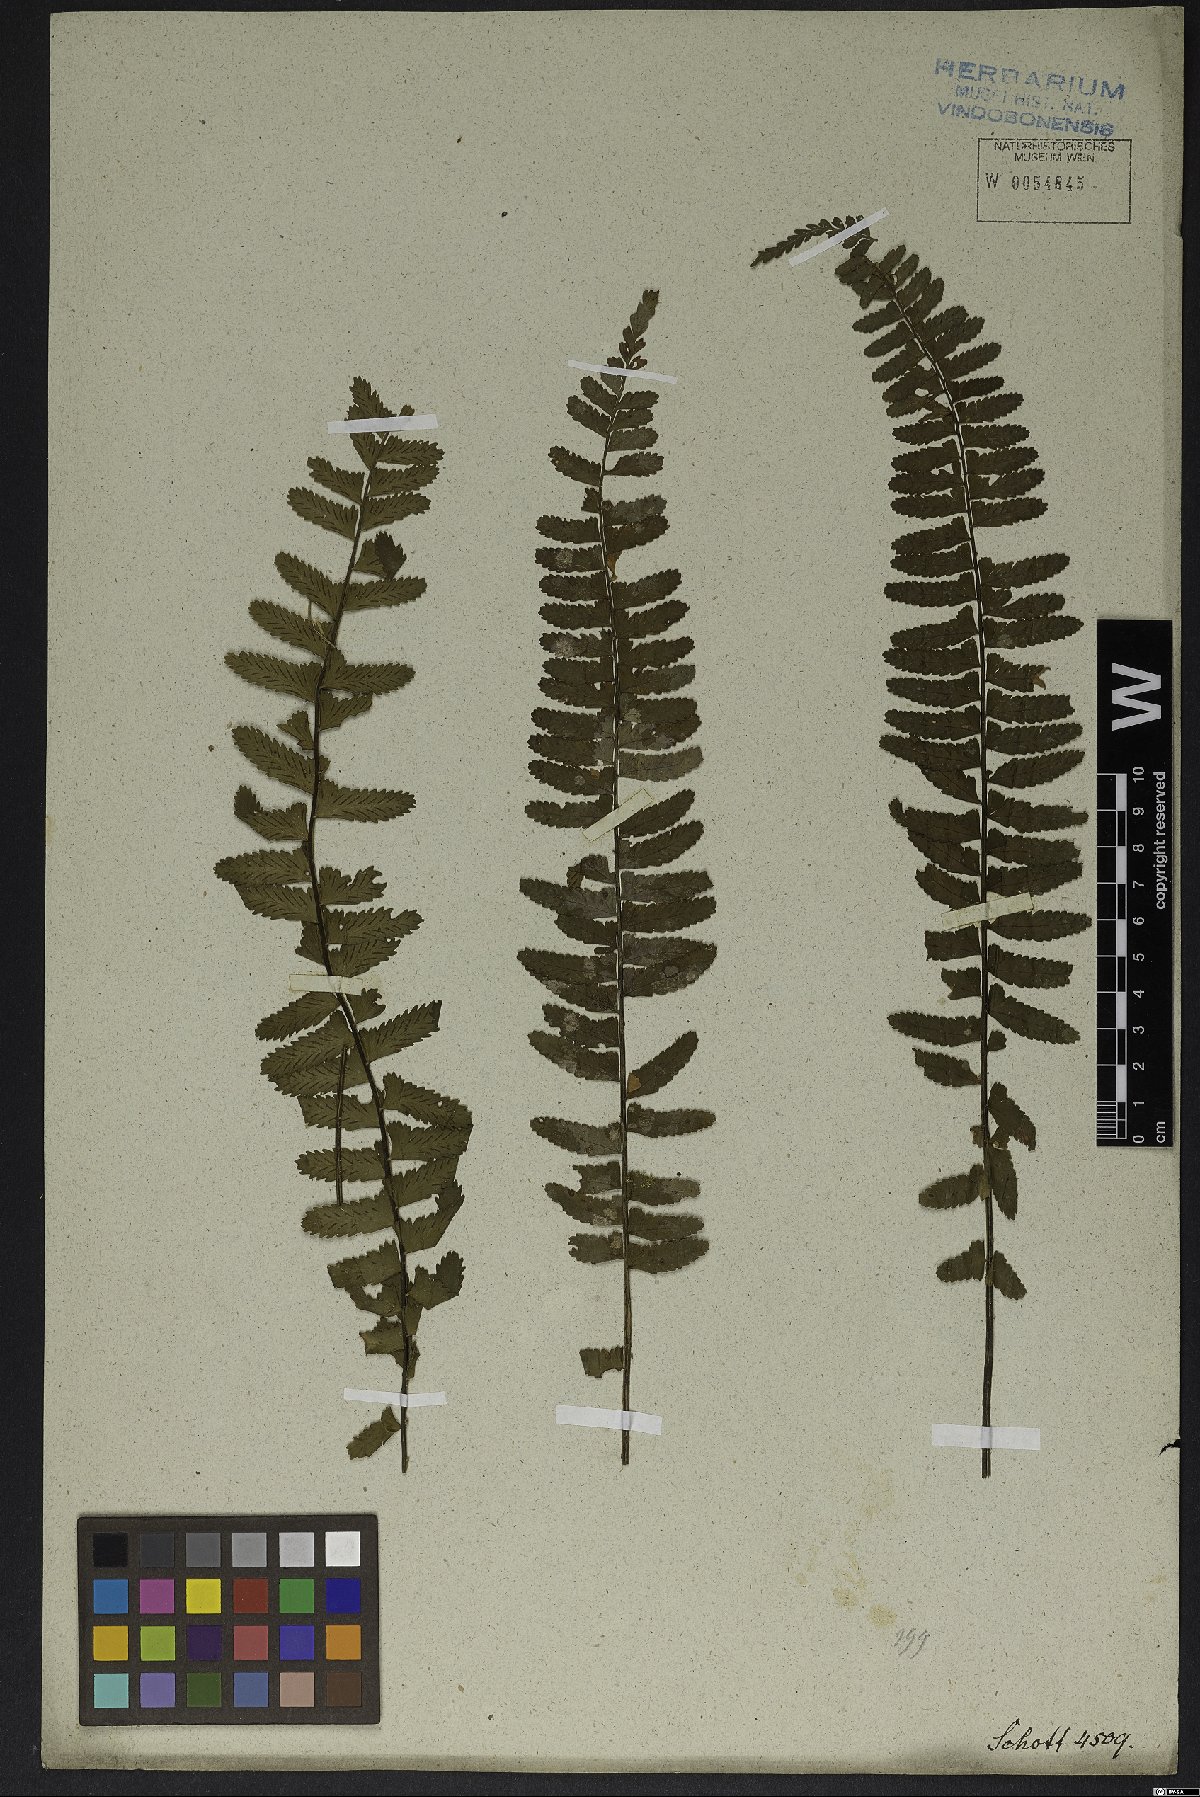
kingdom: Plantae
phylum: Tracheophyta
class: Polypodiopsida
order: Polypodiales
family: Aspleniaceae
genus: Asplenium
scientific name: Asplenium lunulatum
